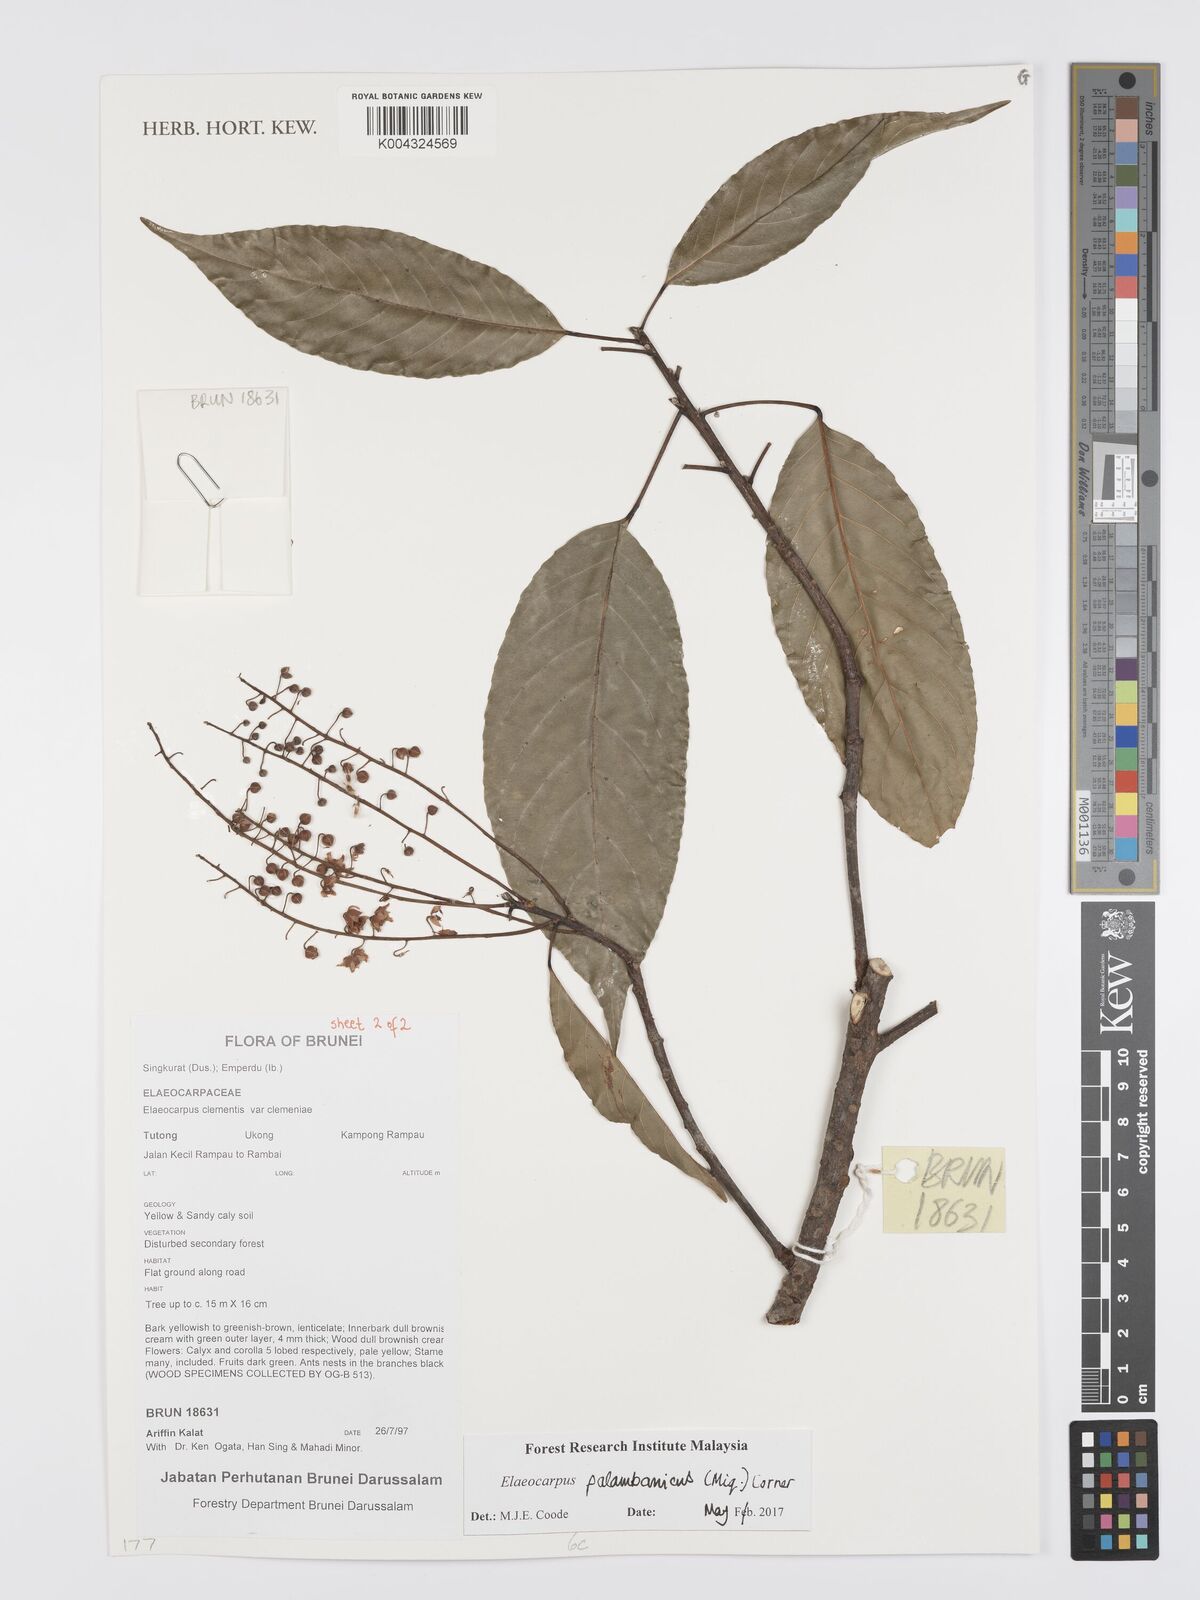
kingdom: Plantae
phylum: Tracheophyta
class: Magnoliopsida
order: Oxalidales
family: Elaeocarpaceae
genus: Elaeocarpus
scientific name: Elaeocarpus palembanicus
